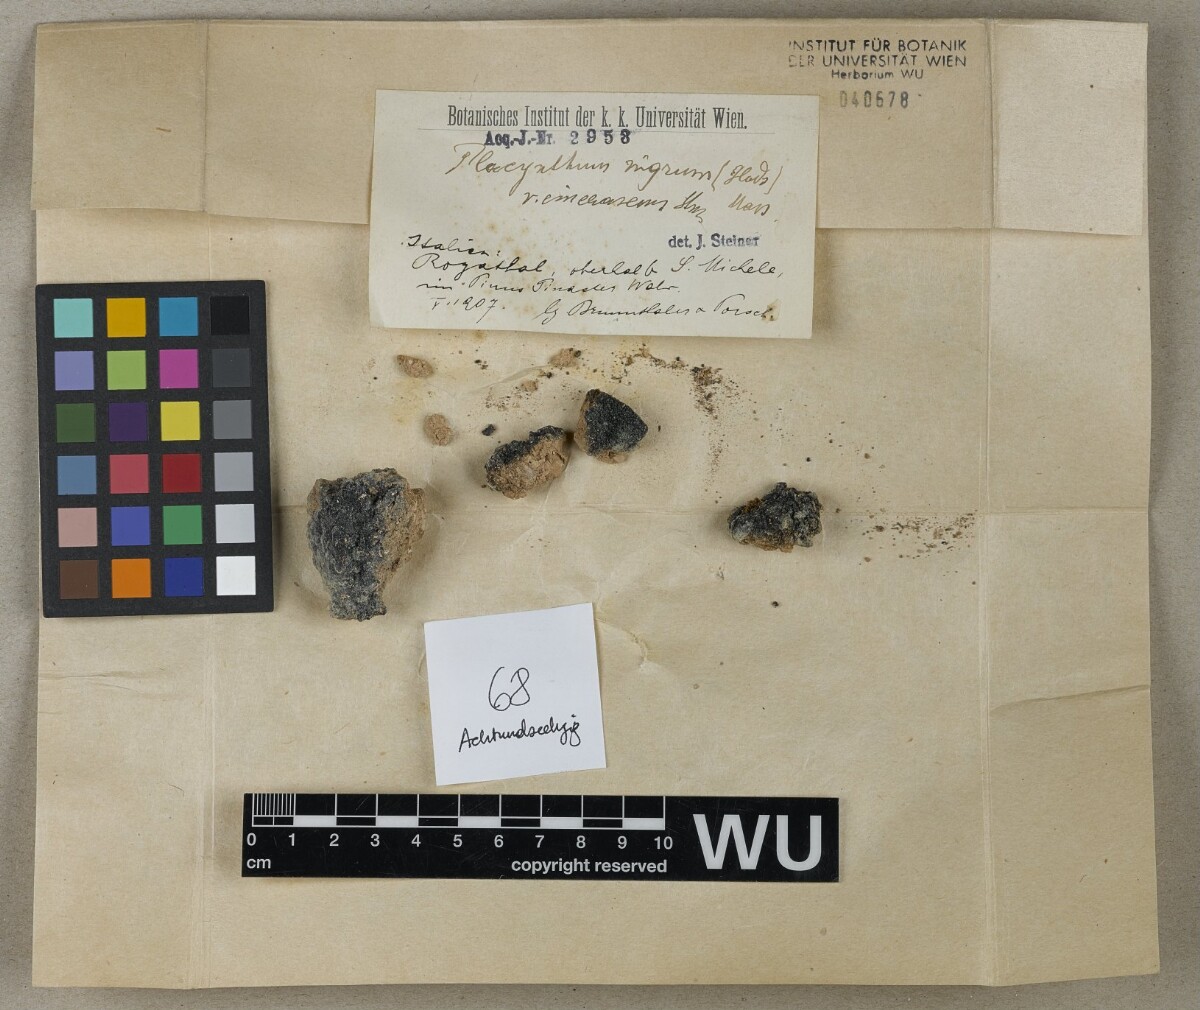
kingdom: Fungi
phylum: Ascomycota
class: Lecanoromycetes
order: Peltigerales
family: Placynthiaceae
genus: Placynthium
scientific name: Placynthium nigrum
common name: Blackthread lichen
